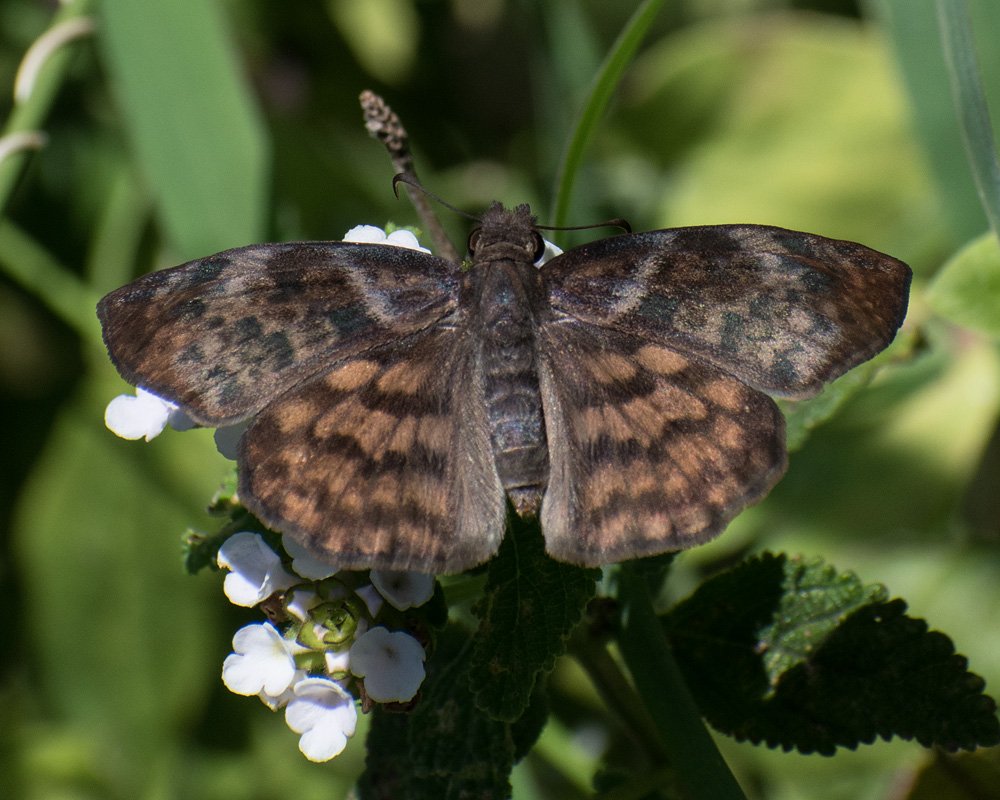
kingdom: Animalia
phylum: Arthropoda
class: Insecta
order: Lepidoptera
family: Hesperiidae
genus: Timochares
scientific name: Timochares ruptifasciata
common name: Brown-banded Skipper
